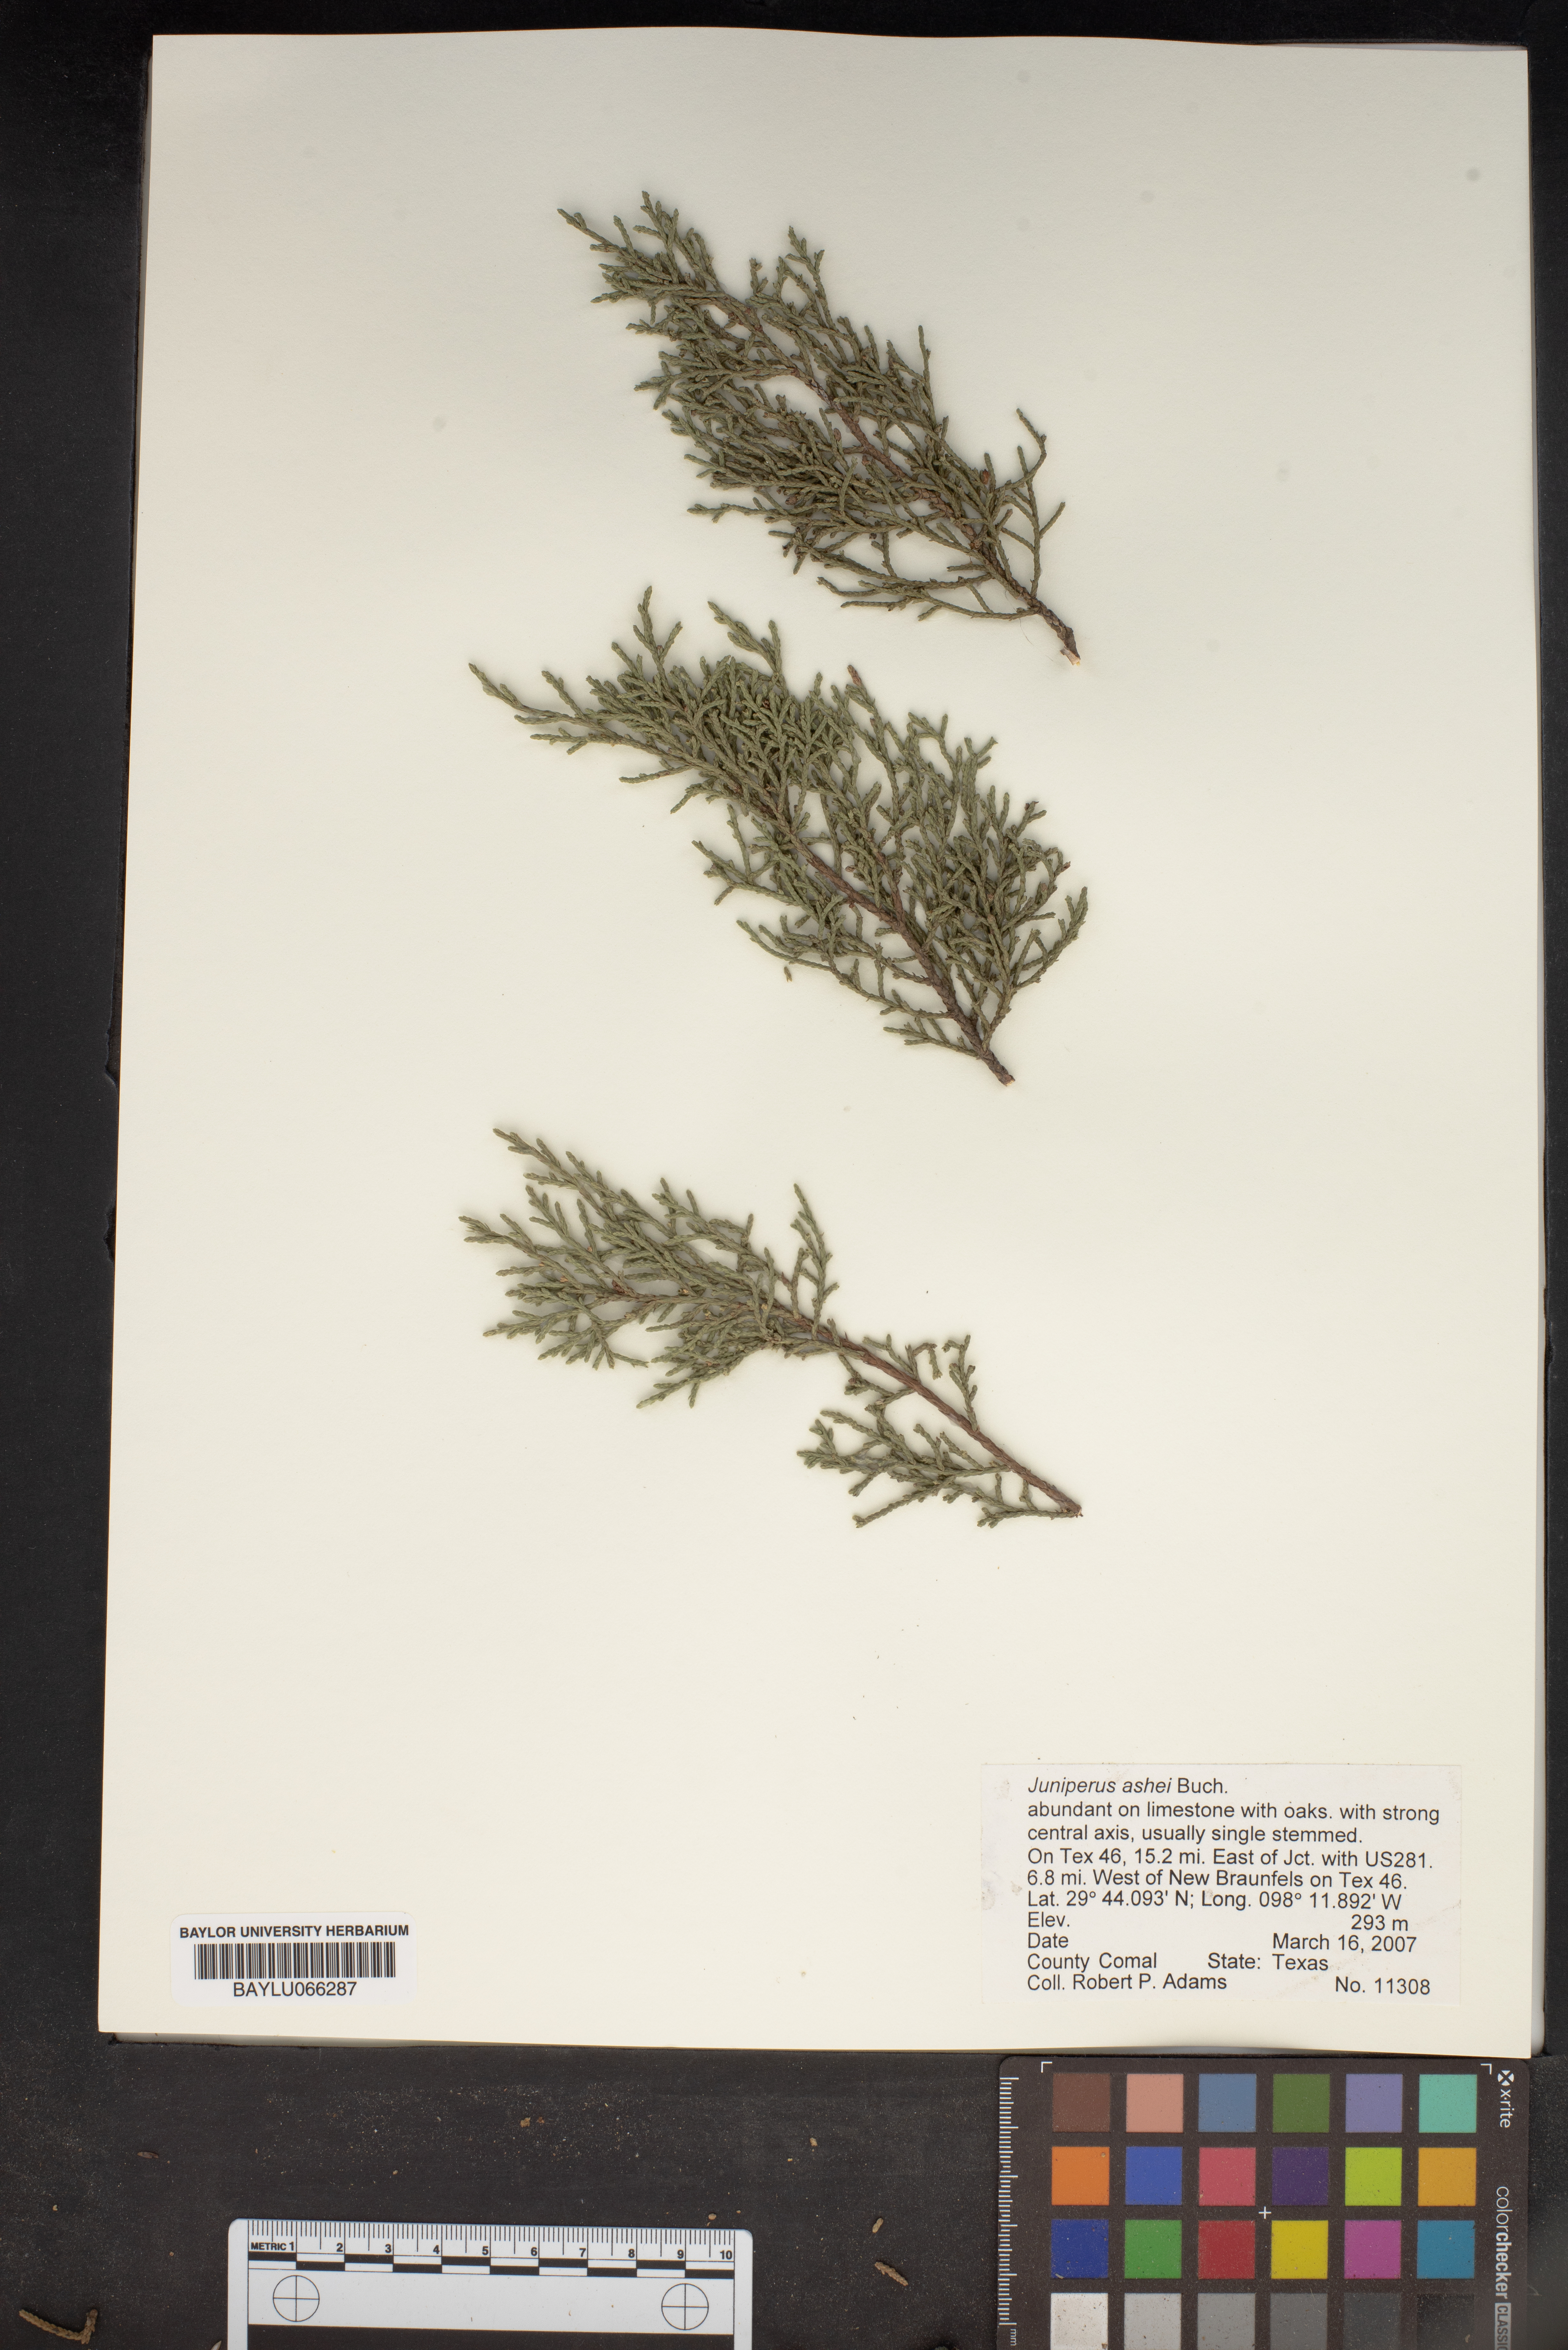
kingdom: Plantae
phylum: Tracheophyta
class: Pinopsida
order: Pinales
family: Cupressaceae
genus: Juniperus
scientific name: Juniperus ashei
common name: Mexican juniper
